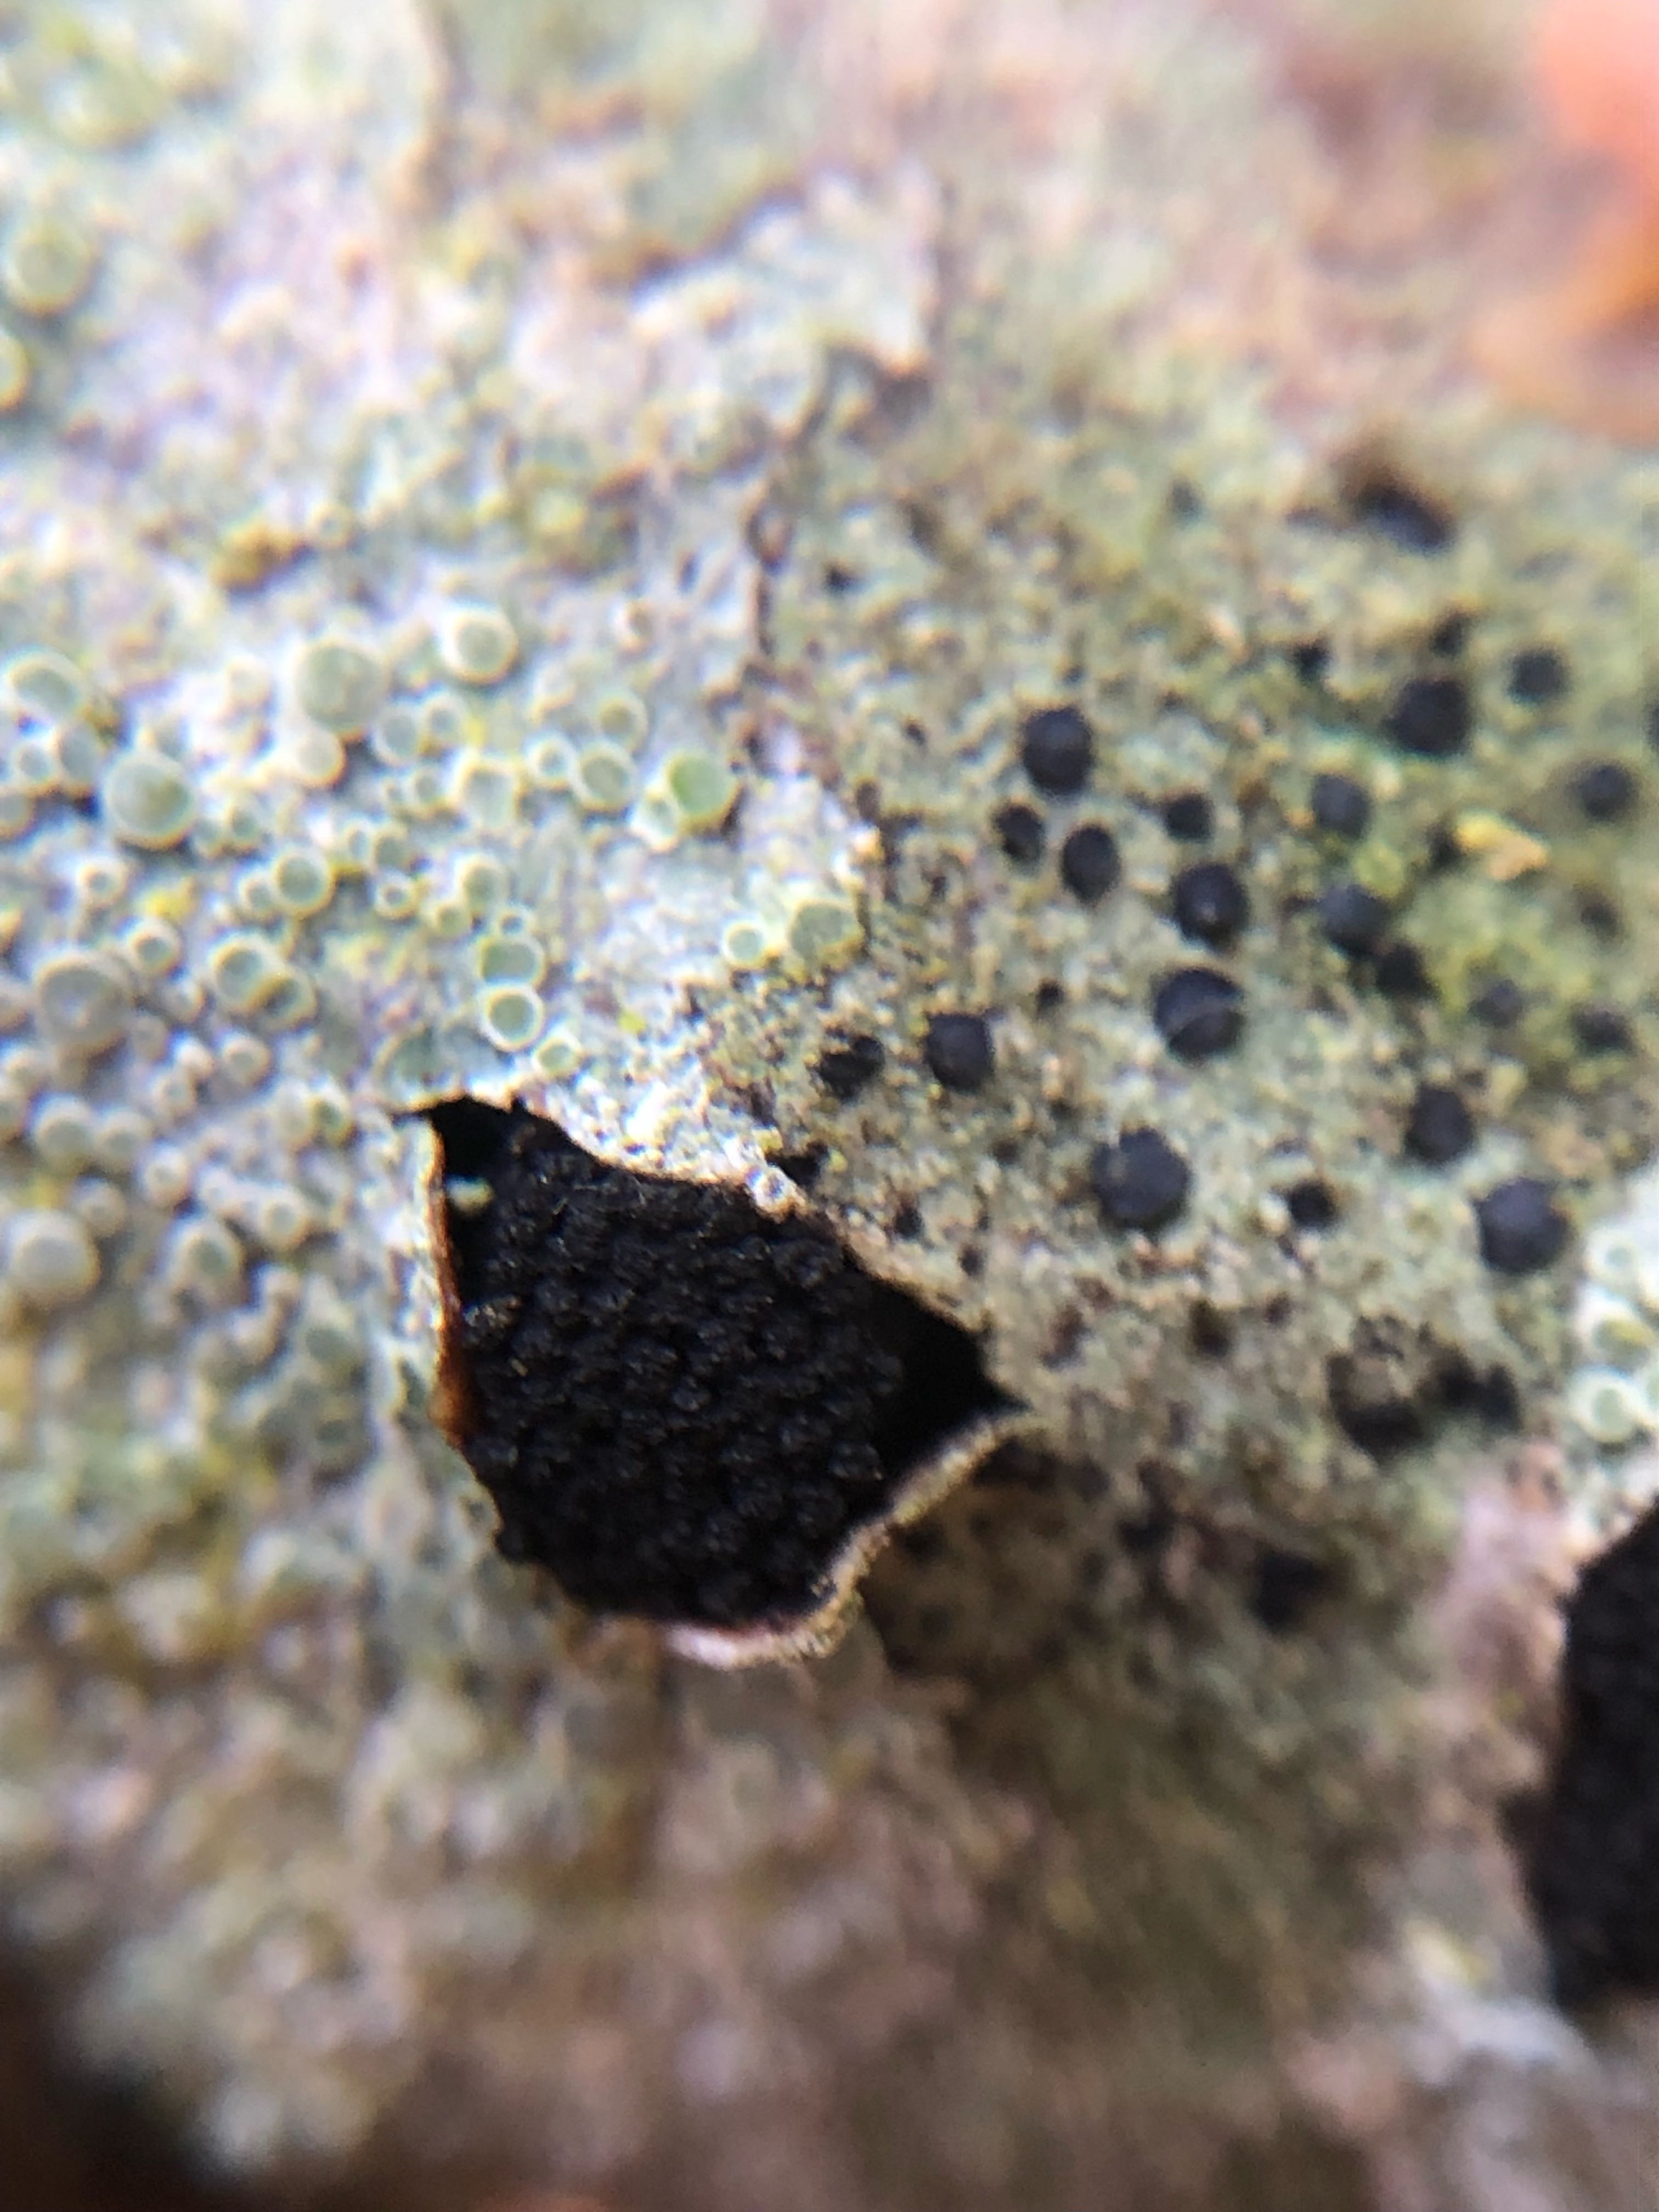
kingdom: Fungi
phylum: Ascomycota
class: Sordariomycetes
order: Xylariales
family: Diatrypaceae
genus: Eutypella
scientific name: Eutypella sorbi
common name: rønne-kulskorpe
